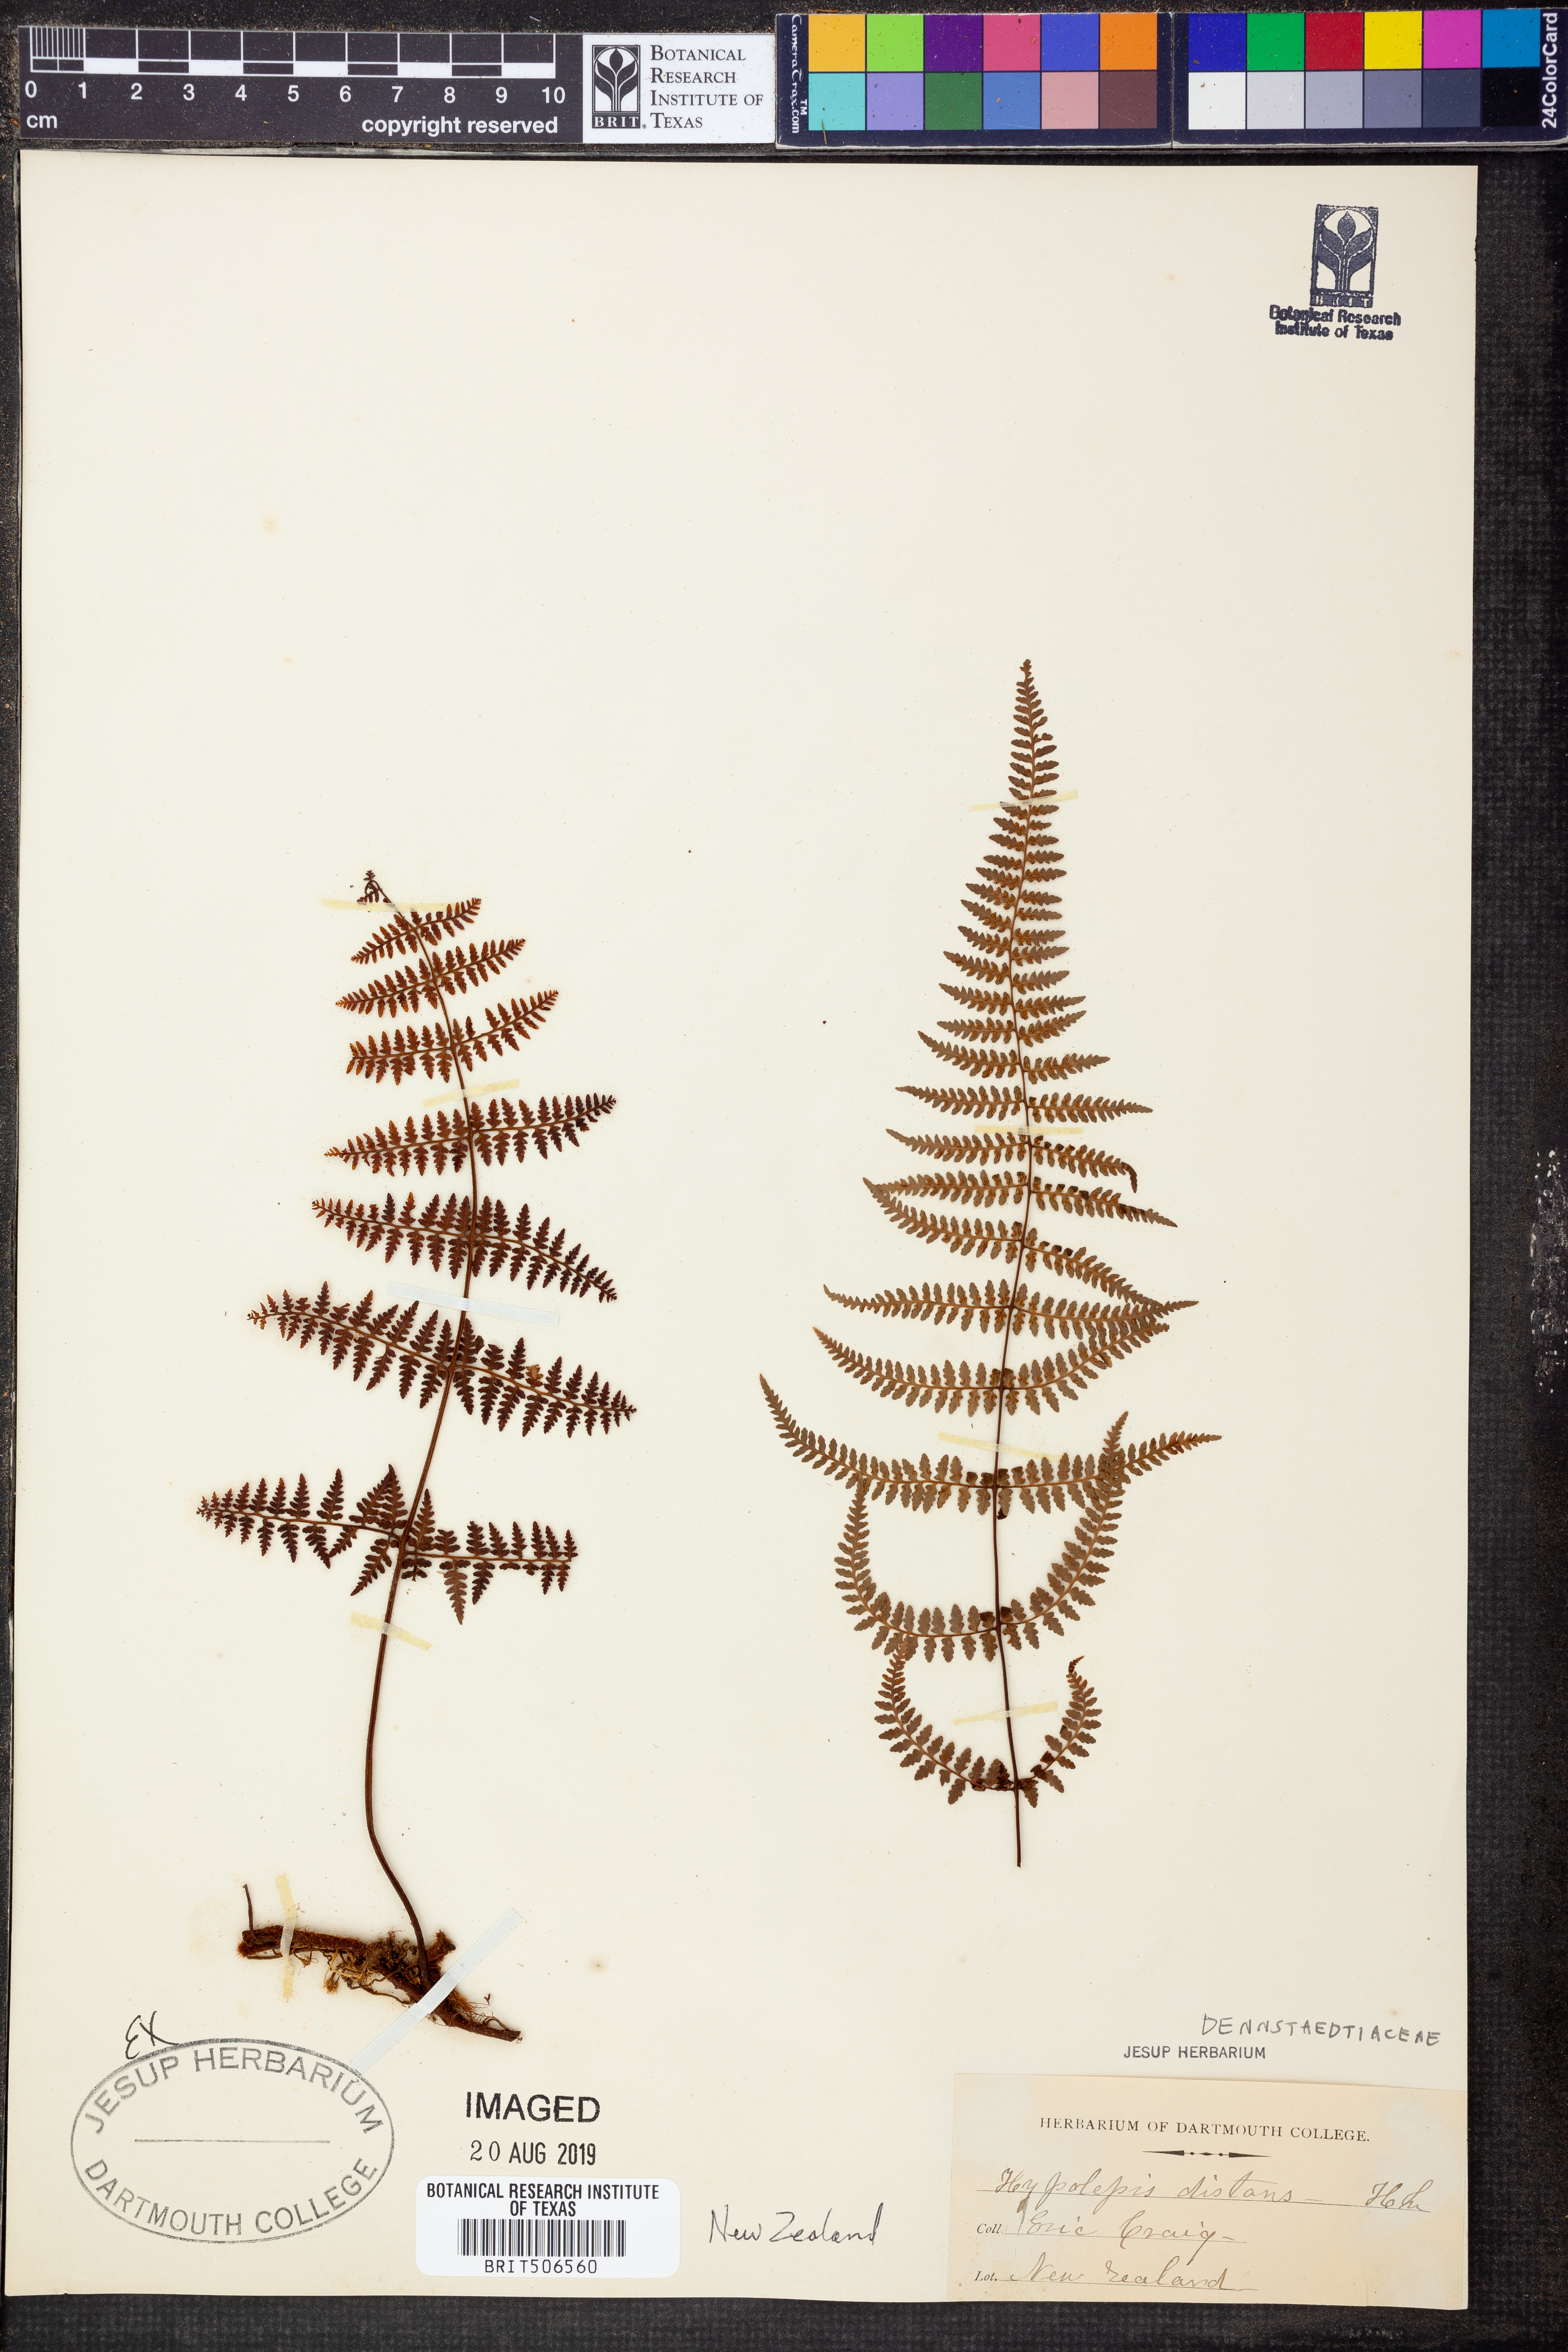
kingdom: Plantae
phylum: Tracheophyta
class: Polypodiopsida
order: Polypodiales
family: Dennstaedtiaceae
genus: Hiya
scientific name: Hiya distans
